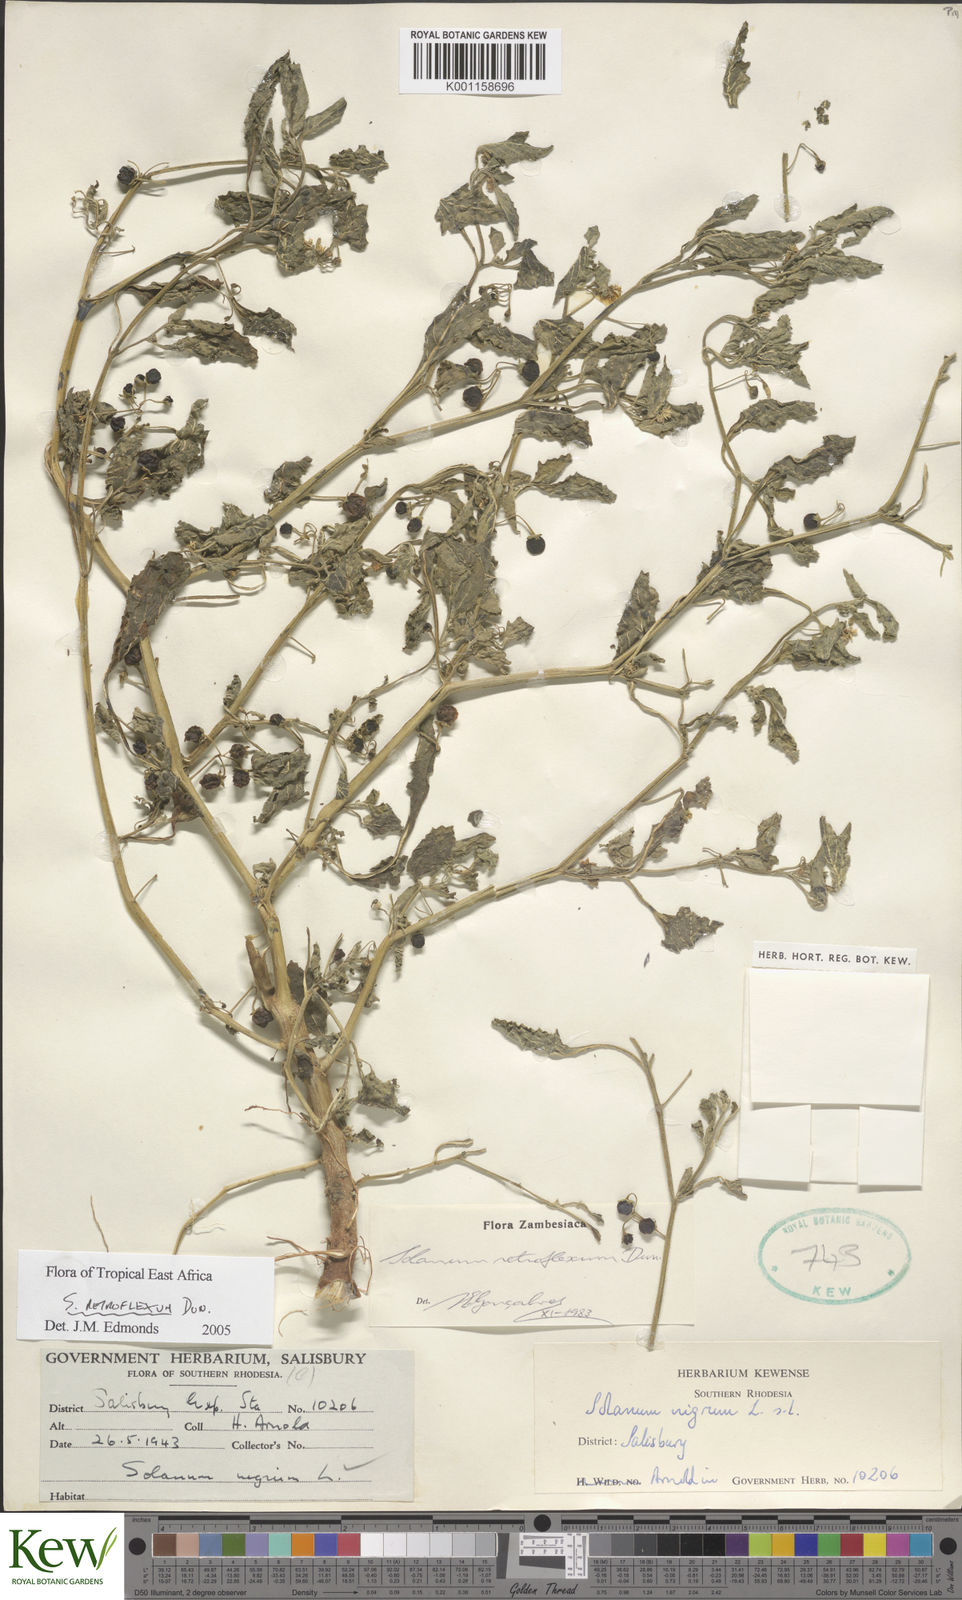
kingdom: Plantae
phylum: Tracheophyta
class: Magnoliopsida
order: Solanales
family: Solanaceae
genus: Solanum
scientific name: Solanum retroflexum
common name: Wonderberry
